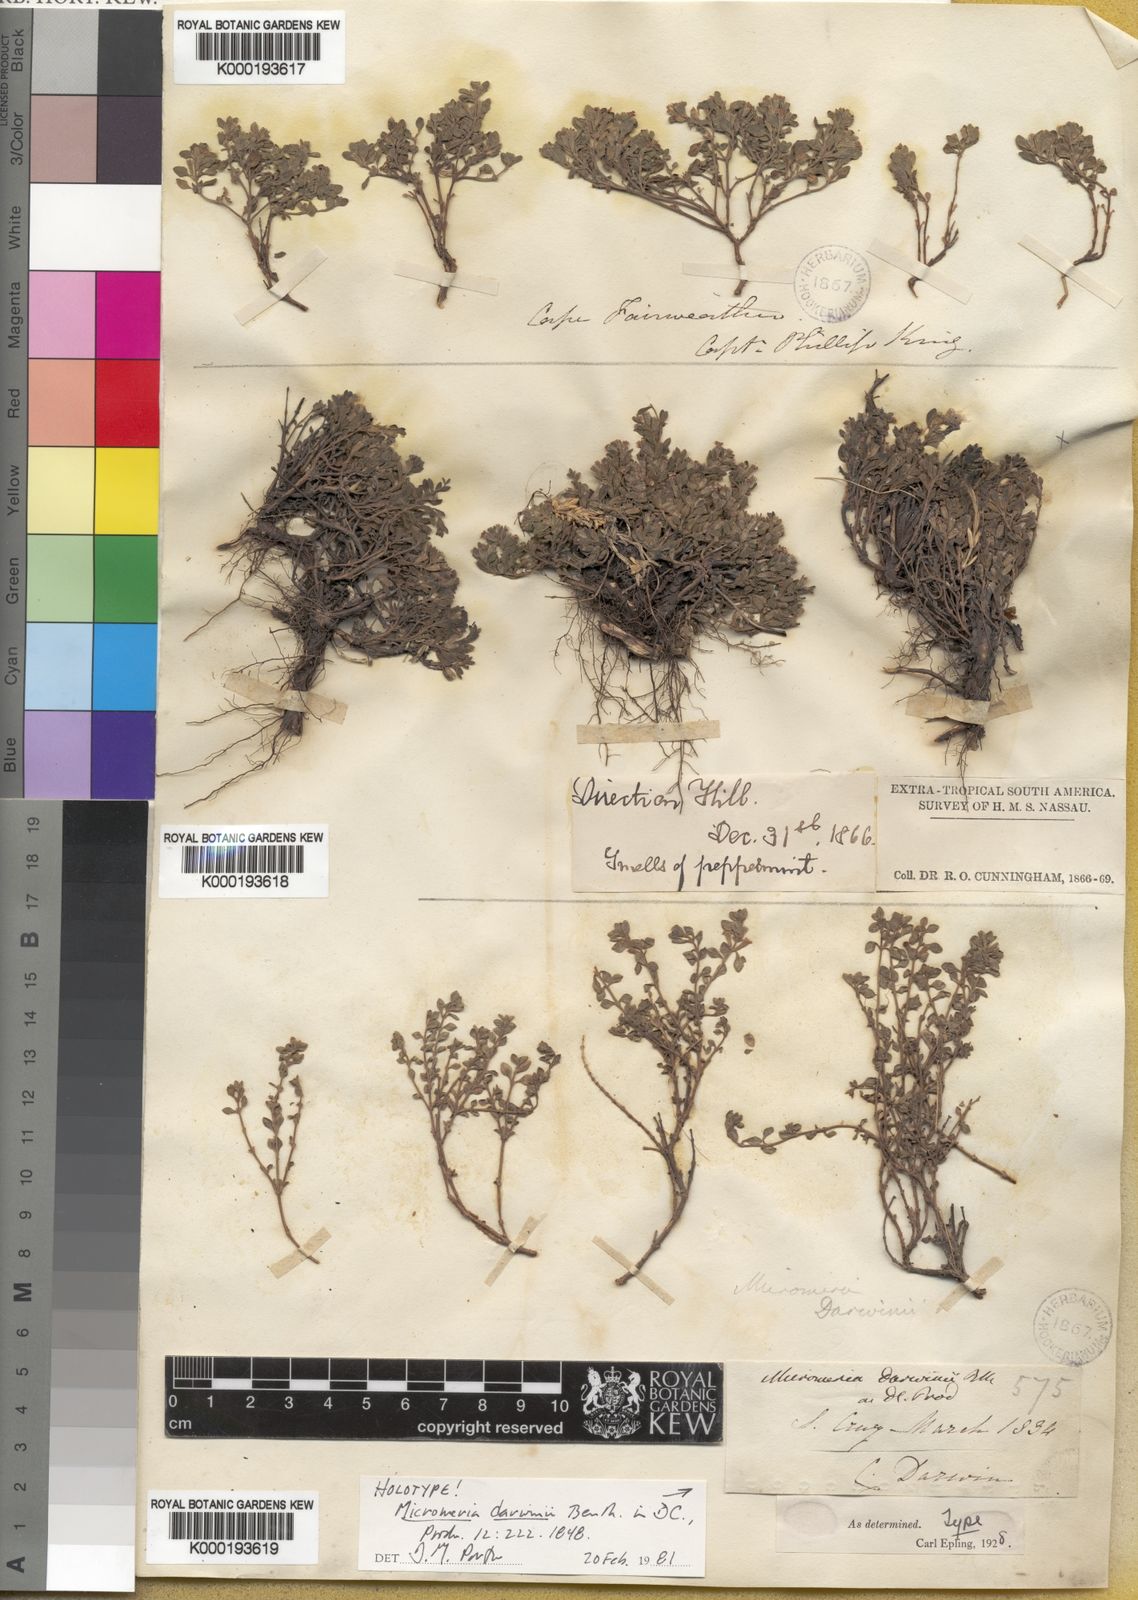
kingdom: Plantae
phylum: Tracheophyta
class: Magnoliopsida
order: Lamiales
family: Lamiaceae
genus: Clinopodium
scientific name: Clinopodium darwinii
